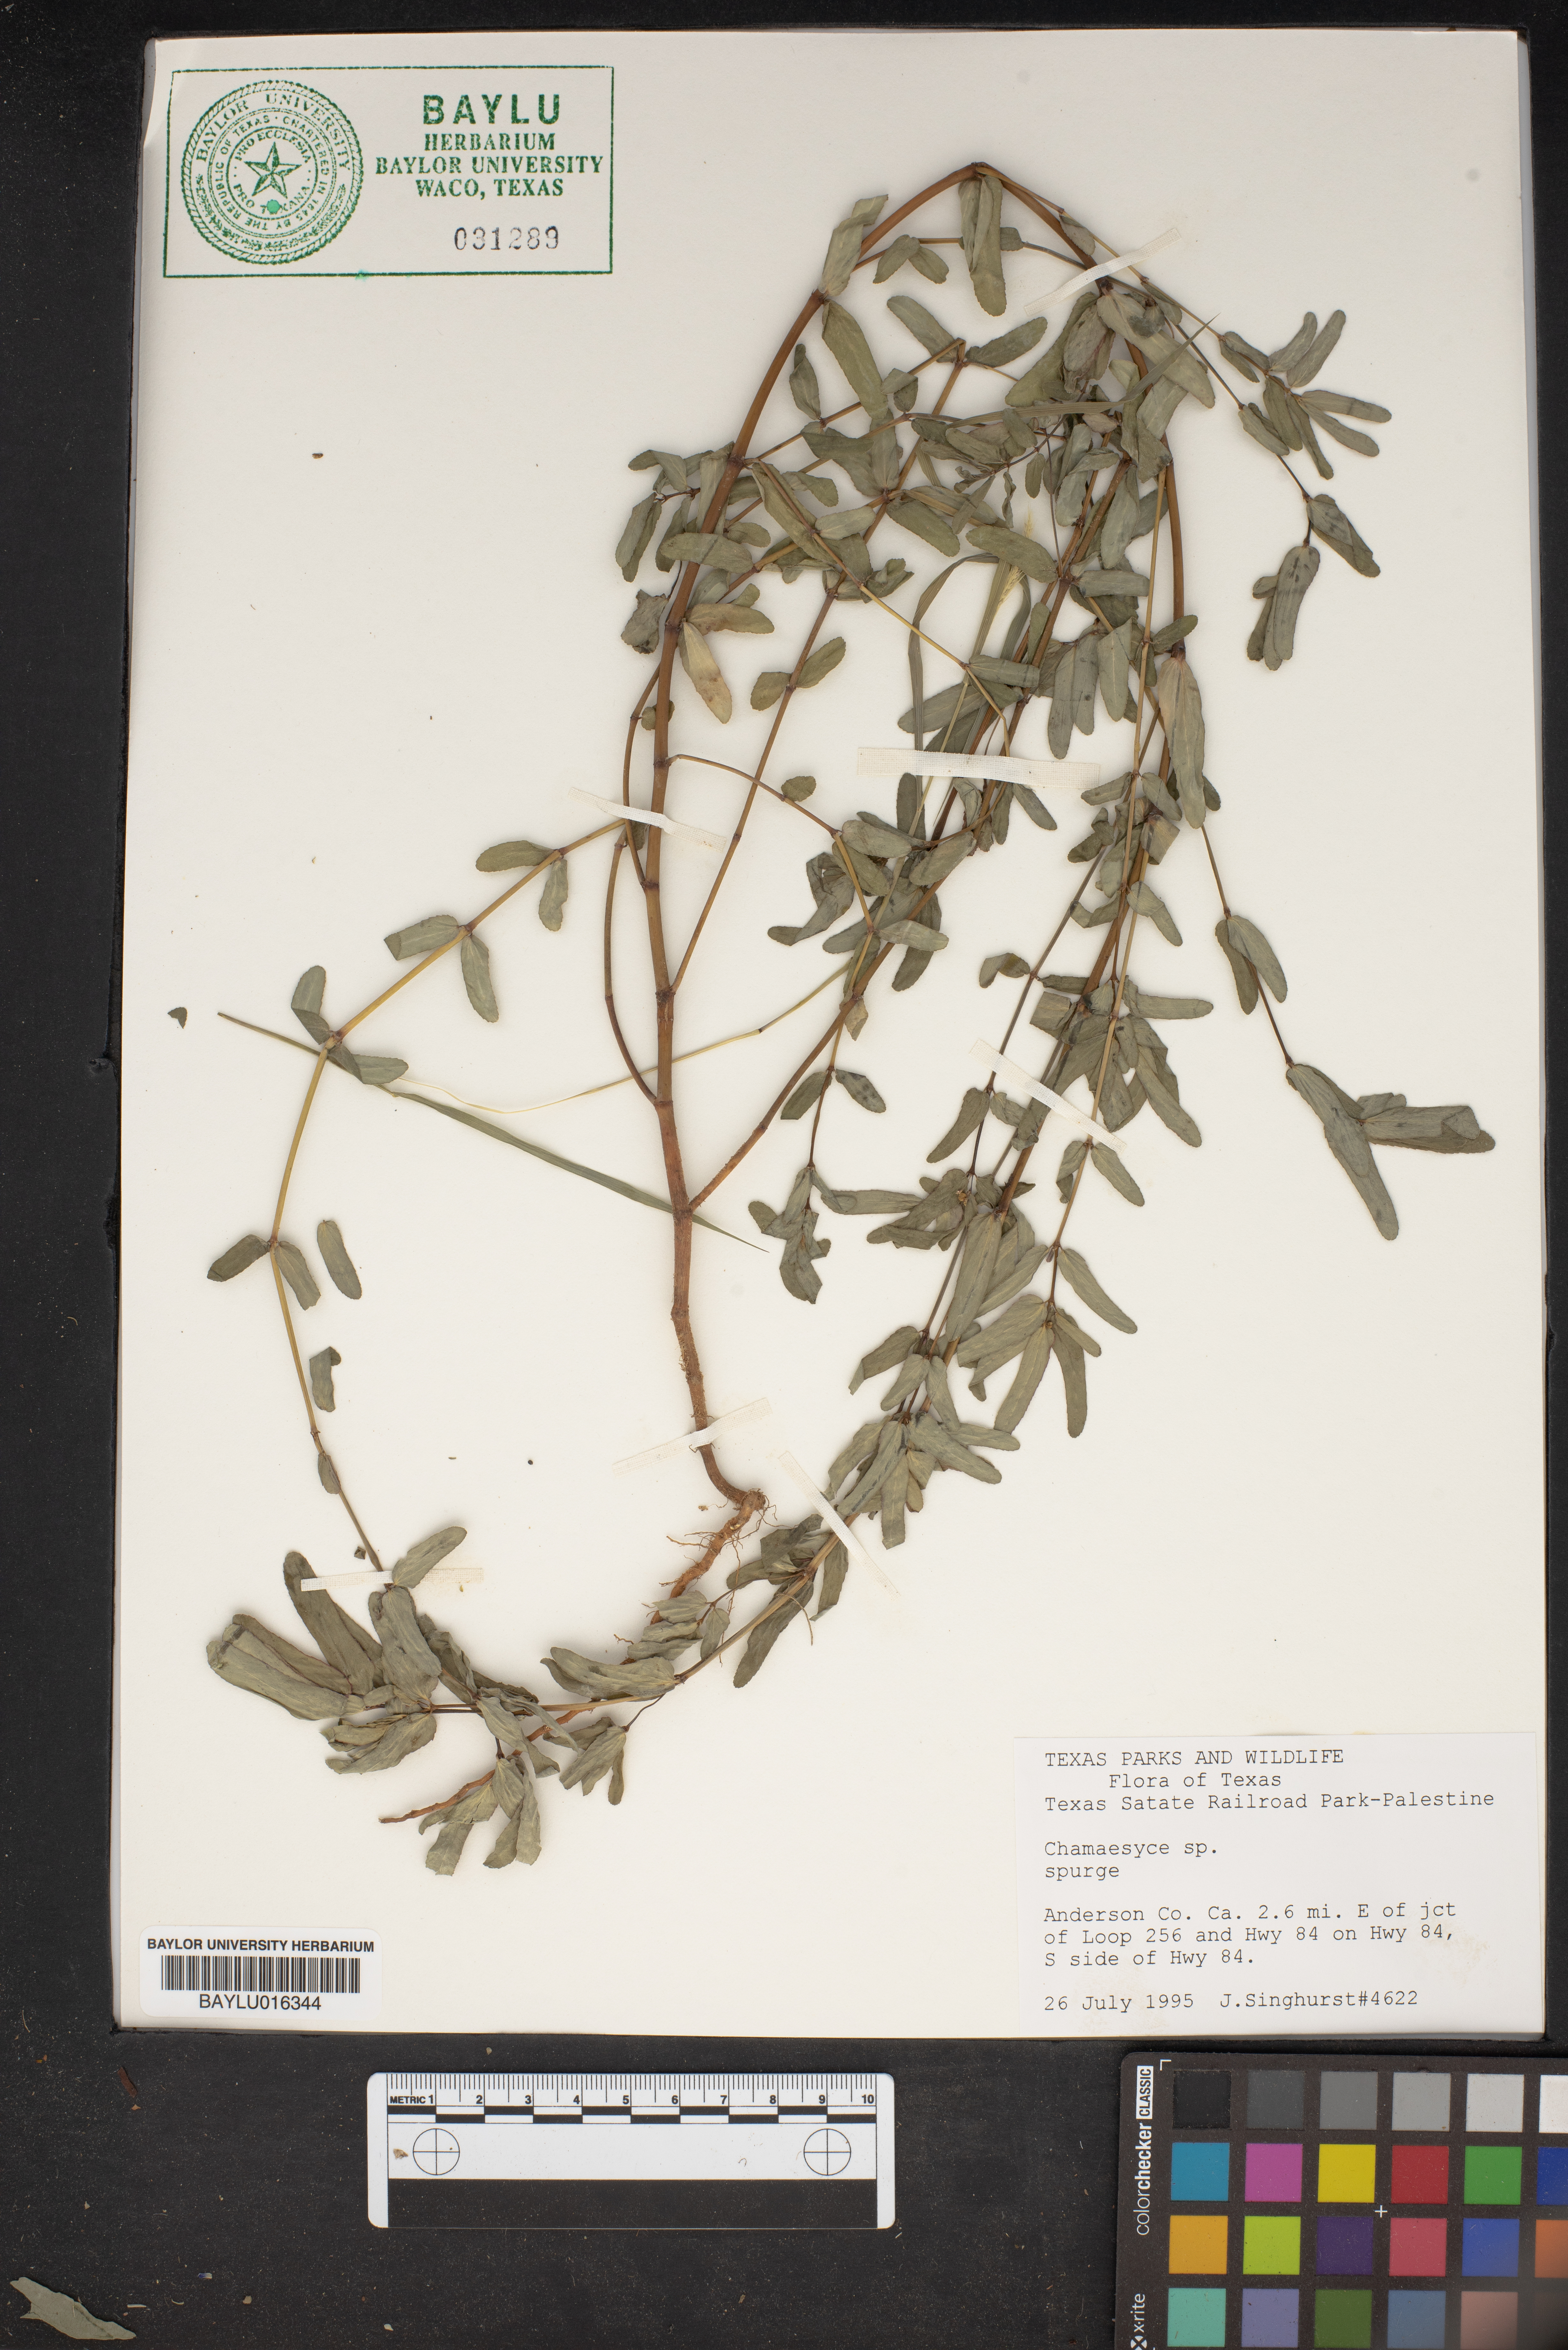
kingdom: Plantae
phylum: Tracheophyta
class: Magnoliopsida
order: Malpighiales
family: Euphorbiaceae
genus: Chamaesyce
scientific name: Chamaesyce
